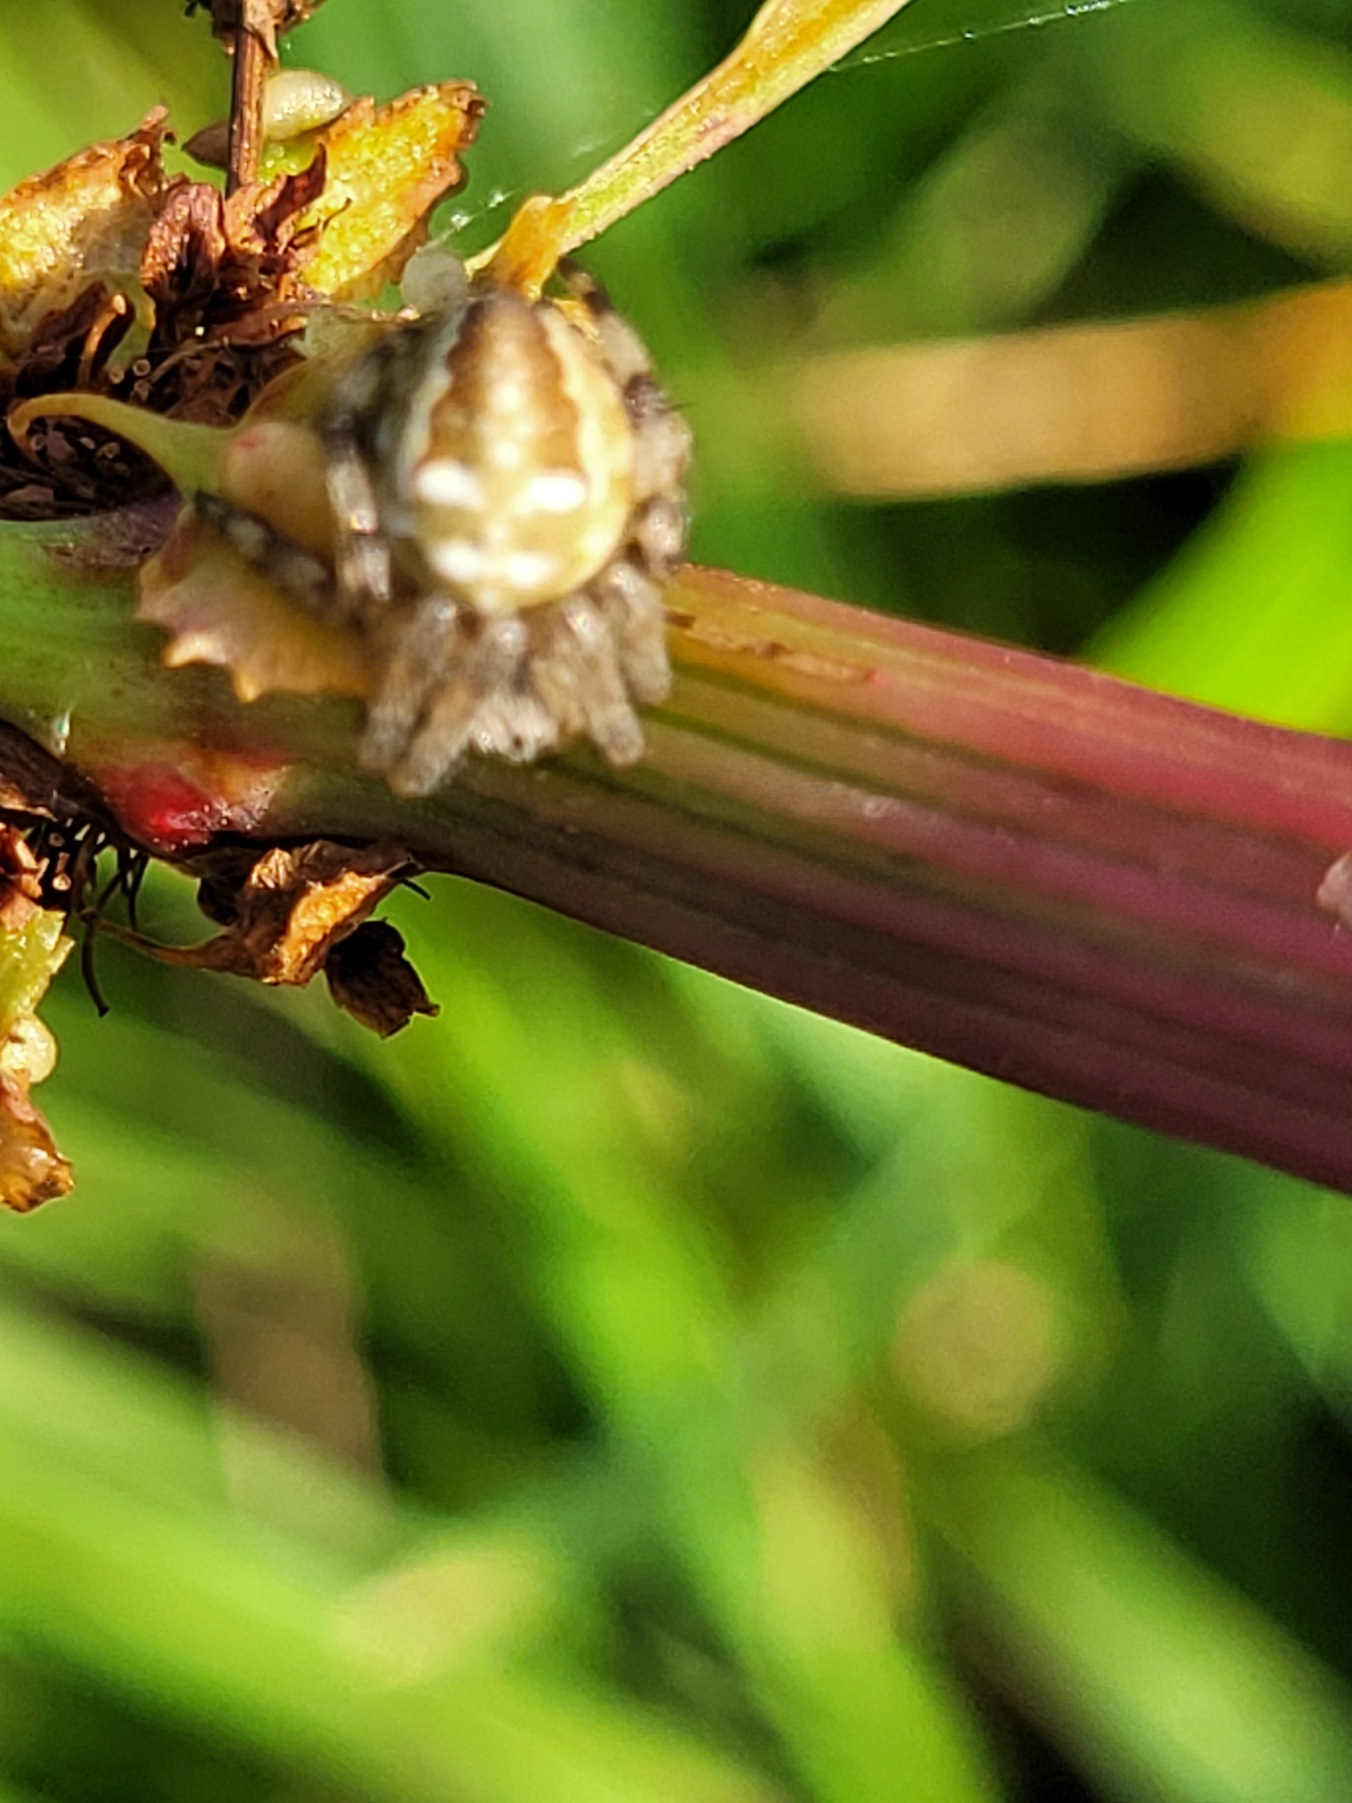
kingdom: Animalia
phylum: Arthropoda
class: Arachnida
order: Araneae
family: Araneidae
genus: Araneus
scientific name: Araneus quadratus
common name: Kvadratedderkop
